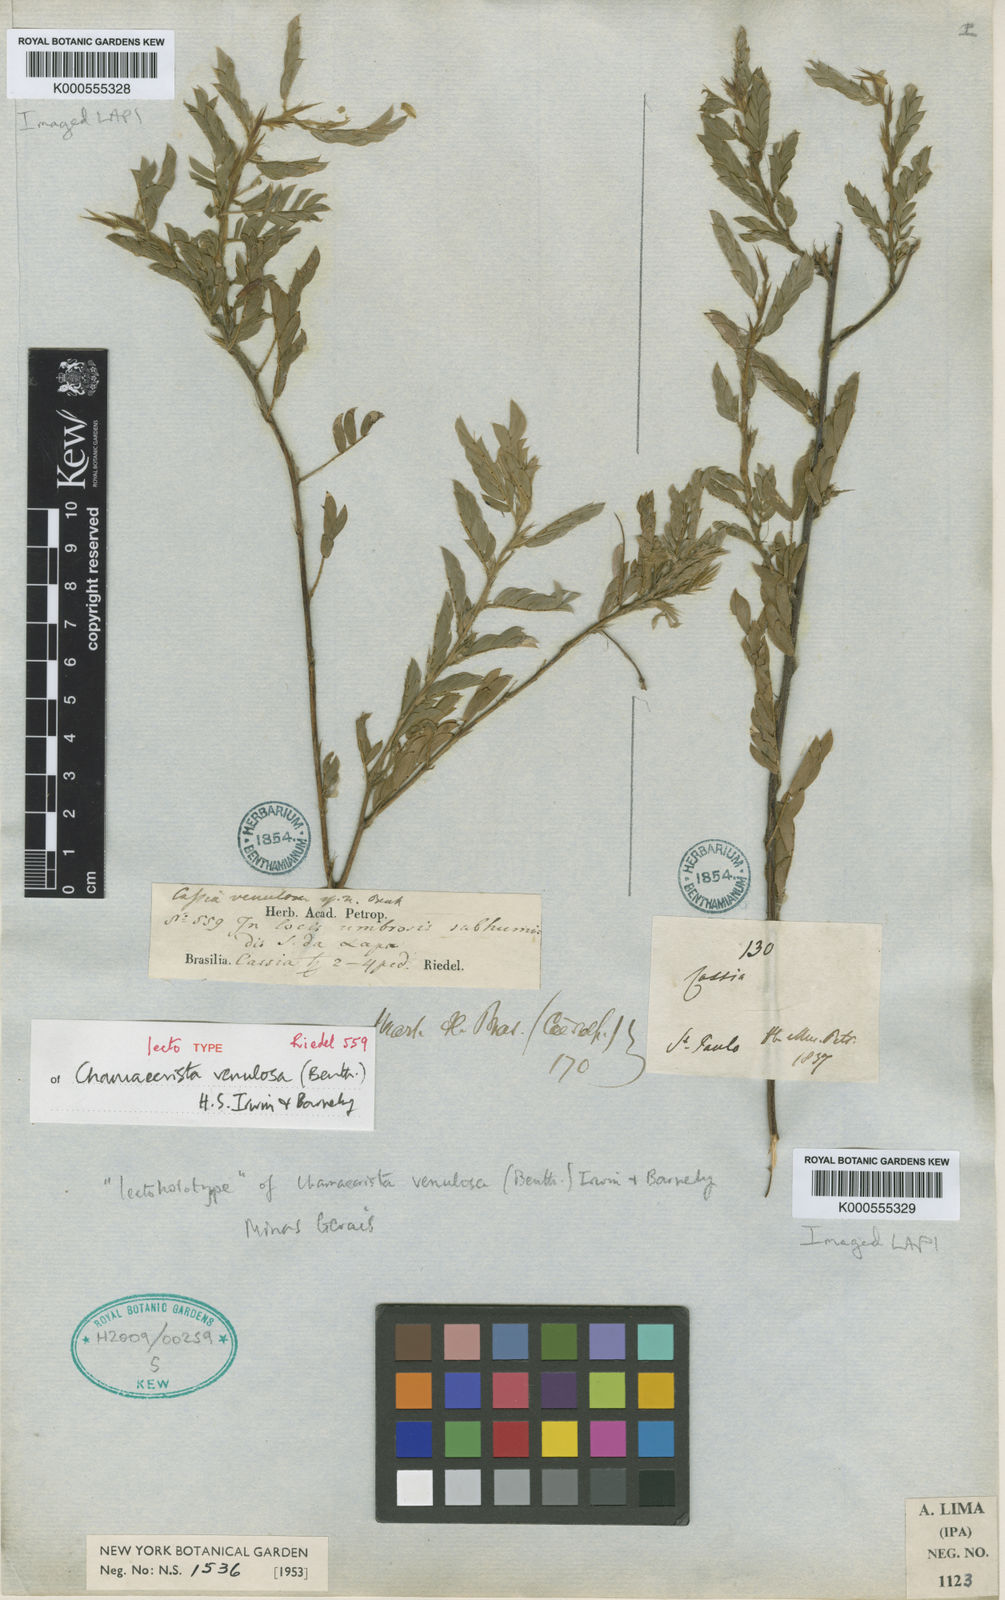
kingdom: Plantae
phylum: Tracheophyta
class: Magnoliopsida
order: Fabales
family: Fabaceae
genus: Chamaecrista
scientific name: Chamaecrista venulosa
